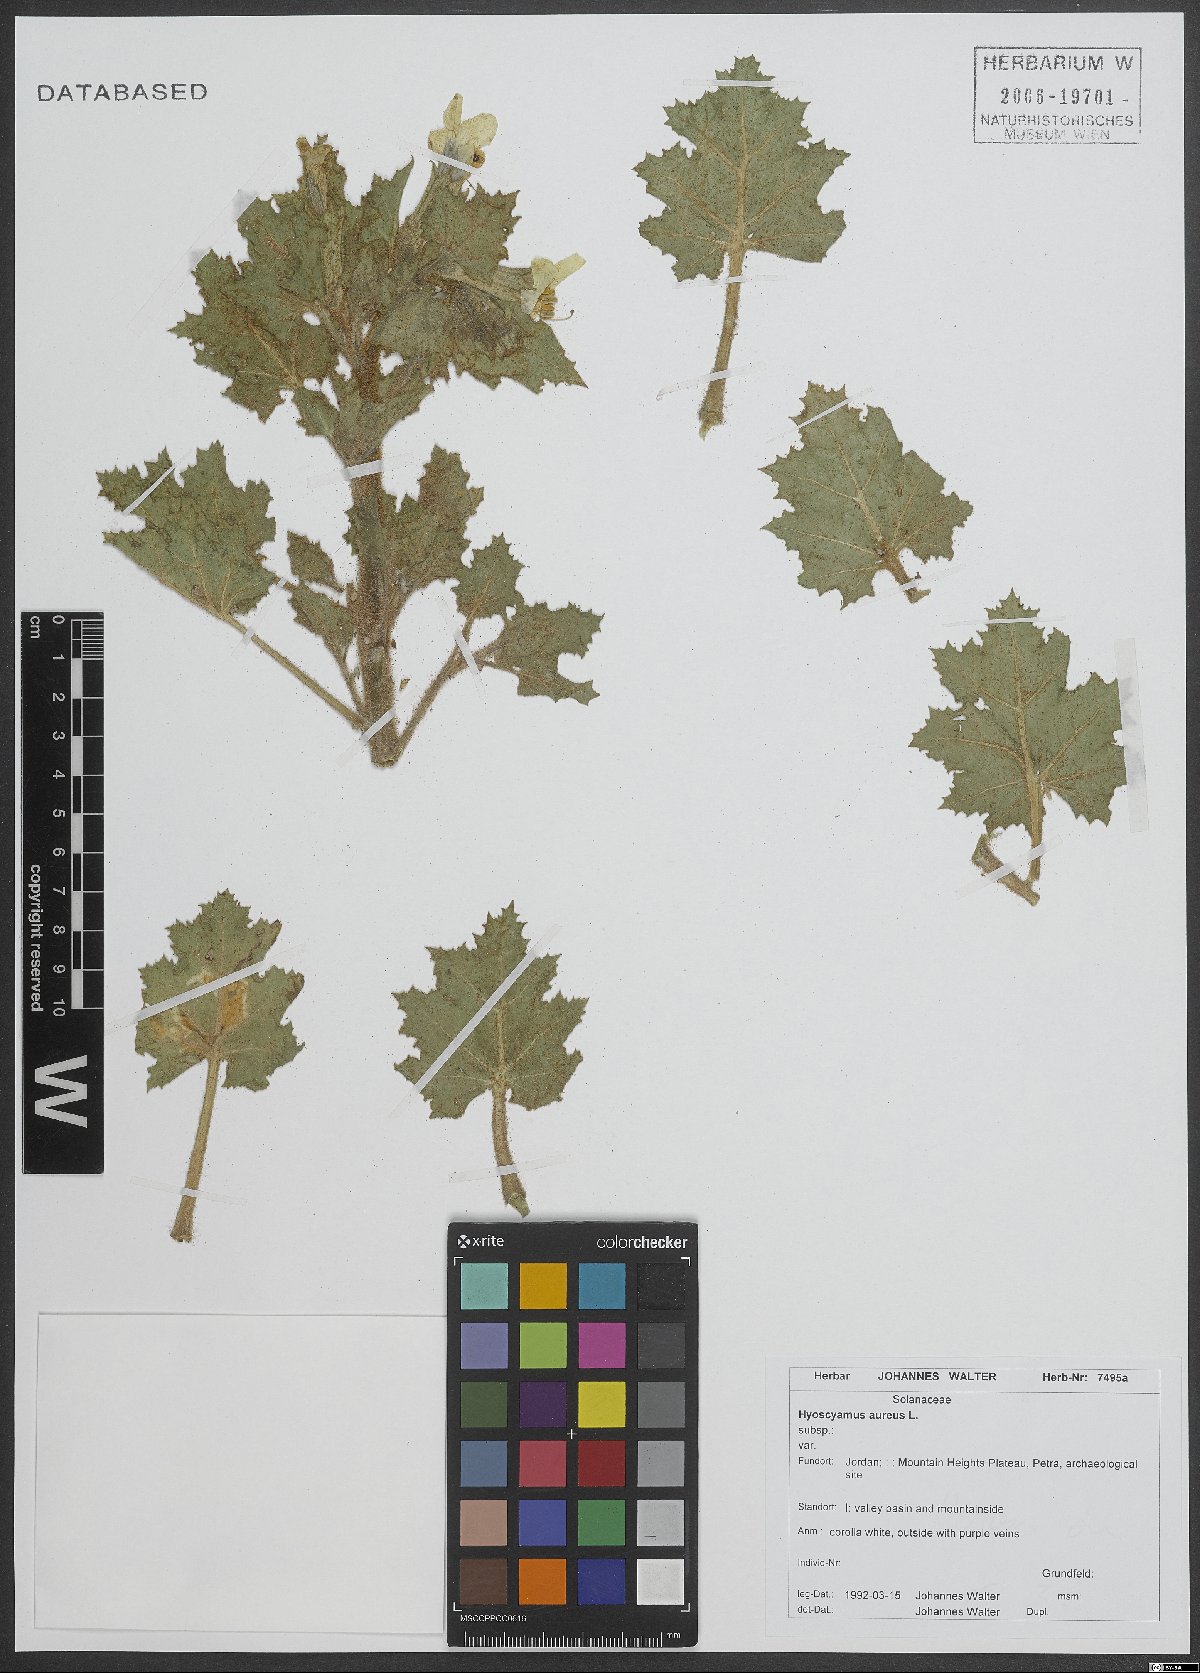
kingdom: Plantae
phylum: Tracheophyta
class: Magnoliopsida
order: Solanales
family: Solanaceae
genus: Hyoscyamus
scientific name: Hyoscyamus aureus
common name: Golden henbane
